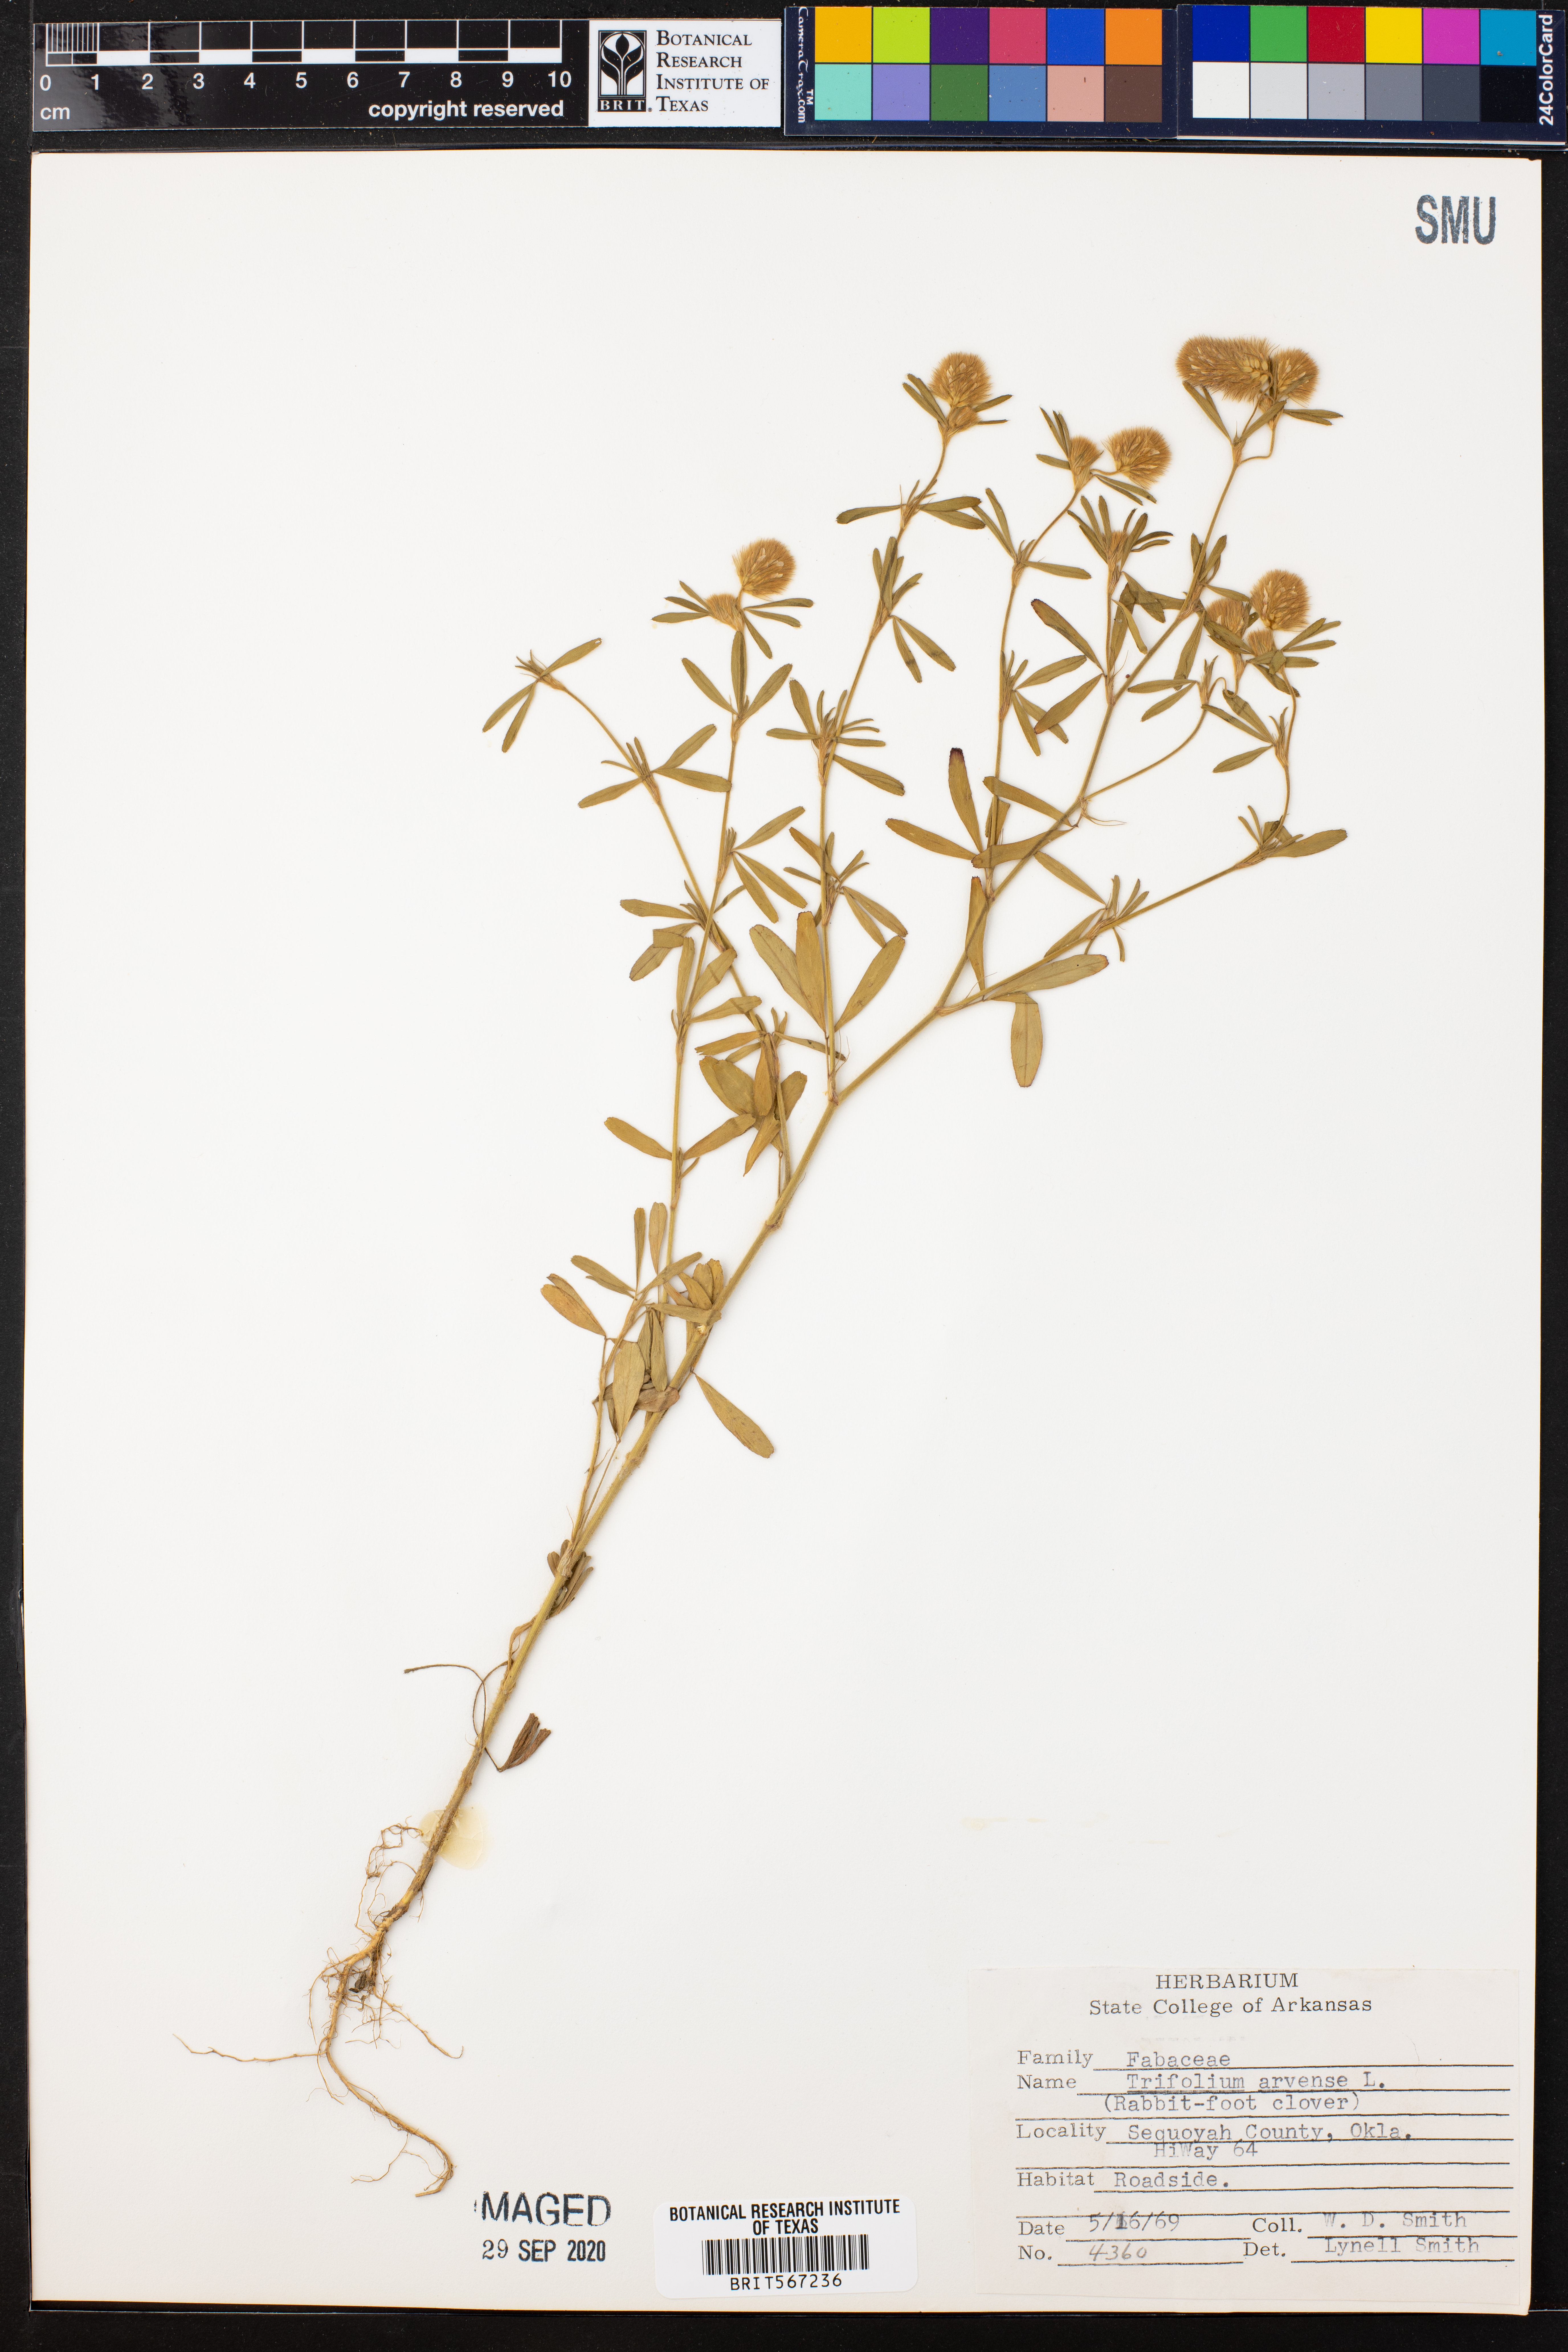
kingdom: Plantae
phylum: Tracheophyta
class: Magnoliopsida
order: Fabales
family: Fabaceae
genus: Trifolium
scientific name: Trifolium arvense
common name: Hare's-foot clover
